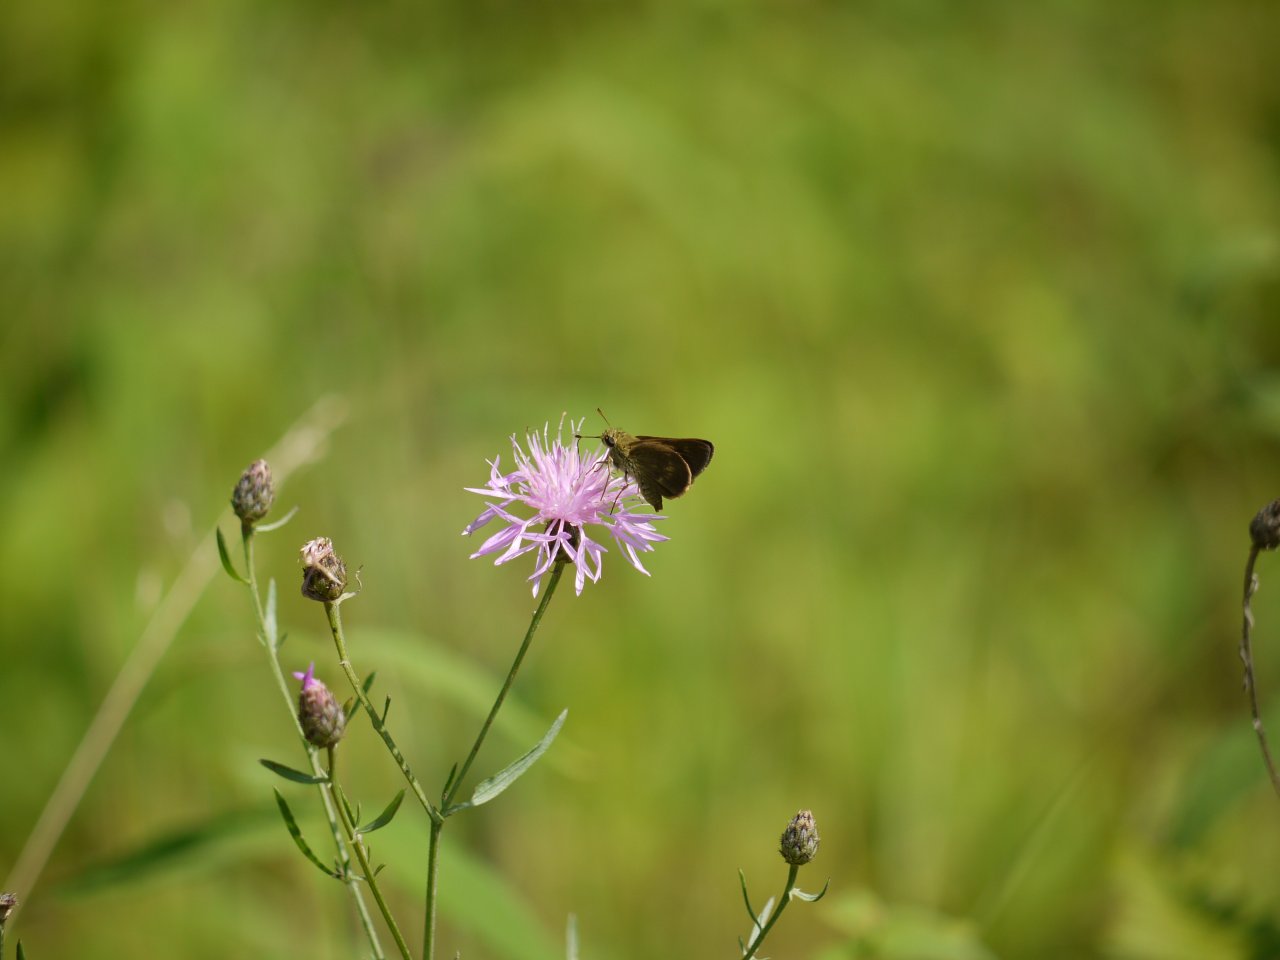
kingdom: Animalia
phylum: Arthropoda
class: Insecta
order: Lepidoptera
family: Hesperiidae
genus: Euphyes
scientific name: Euphyes vestris
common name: Dun Skipper
